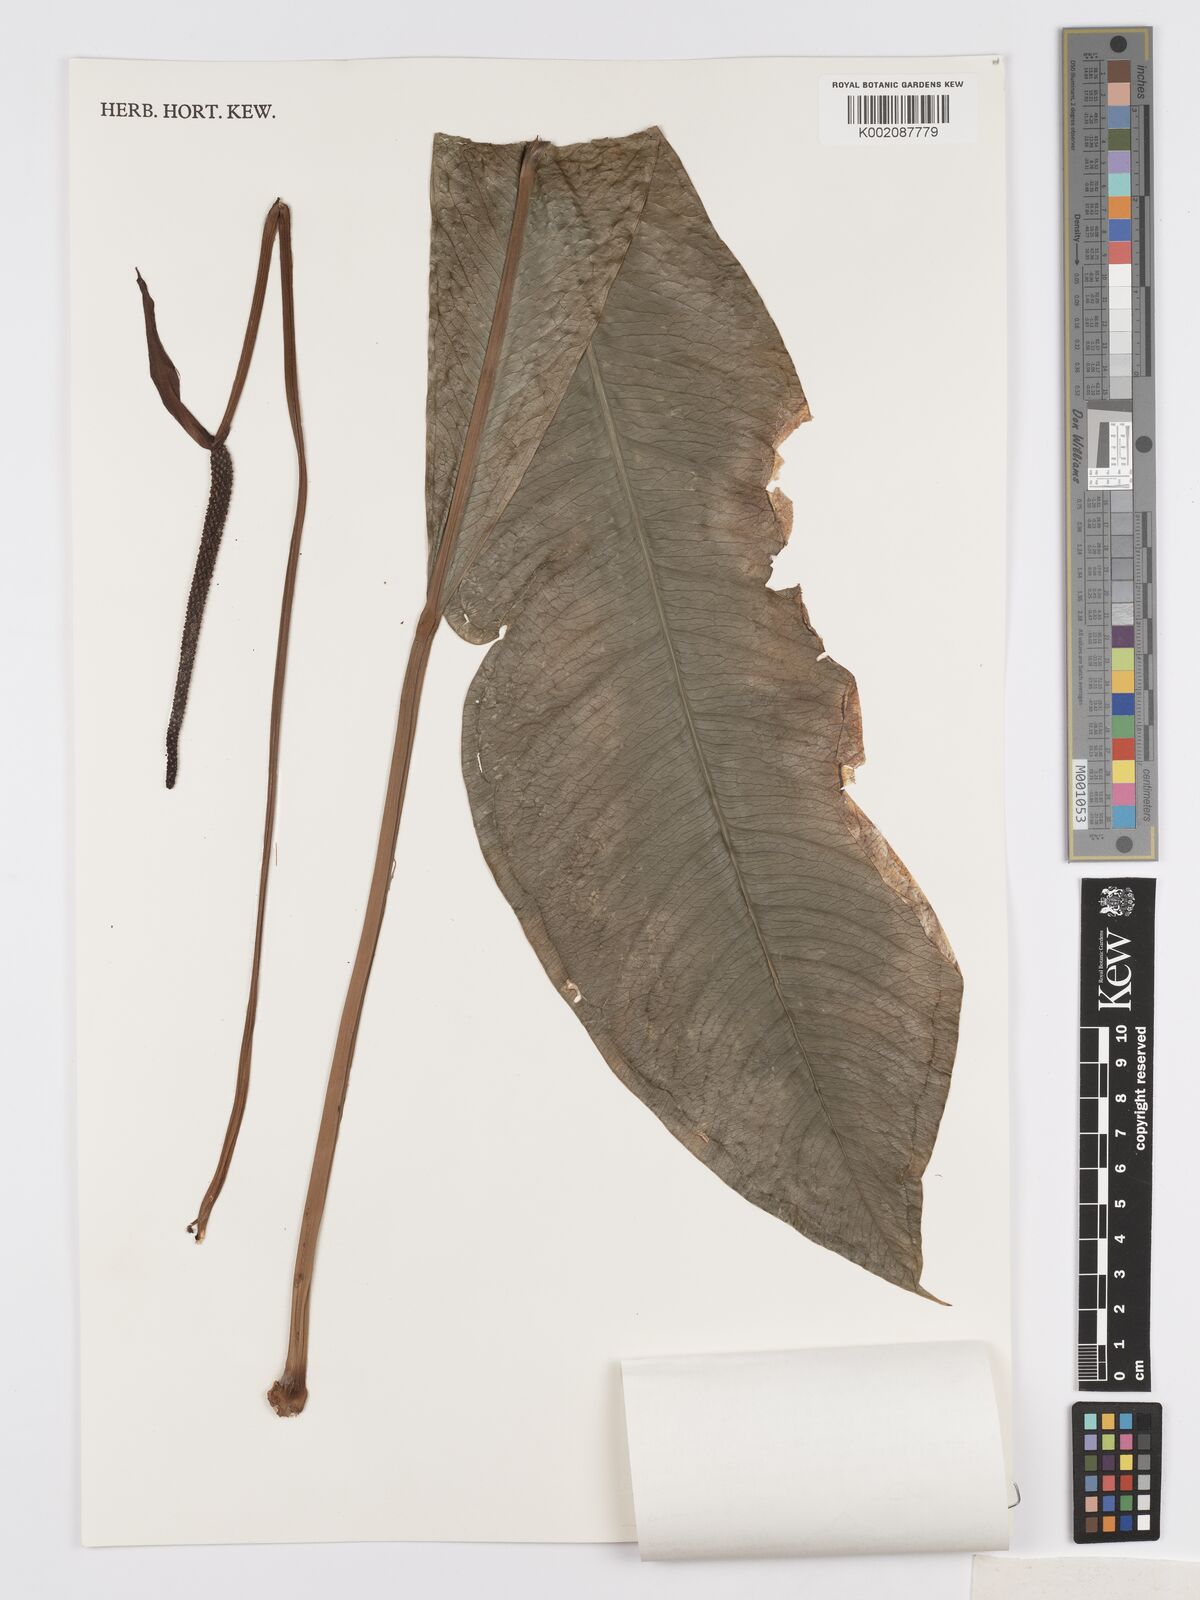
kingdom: Plantae
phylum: Tracheophyta
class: Liliopsida
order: Alismatales
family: Araceae
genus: Anthurium
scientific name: Anthurium parasiticum
